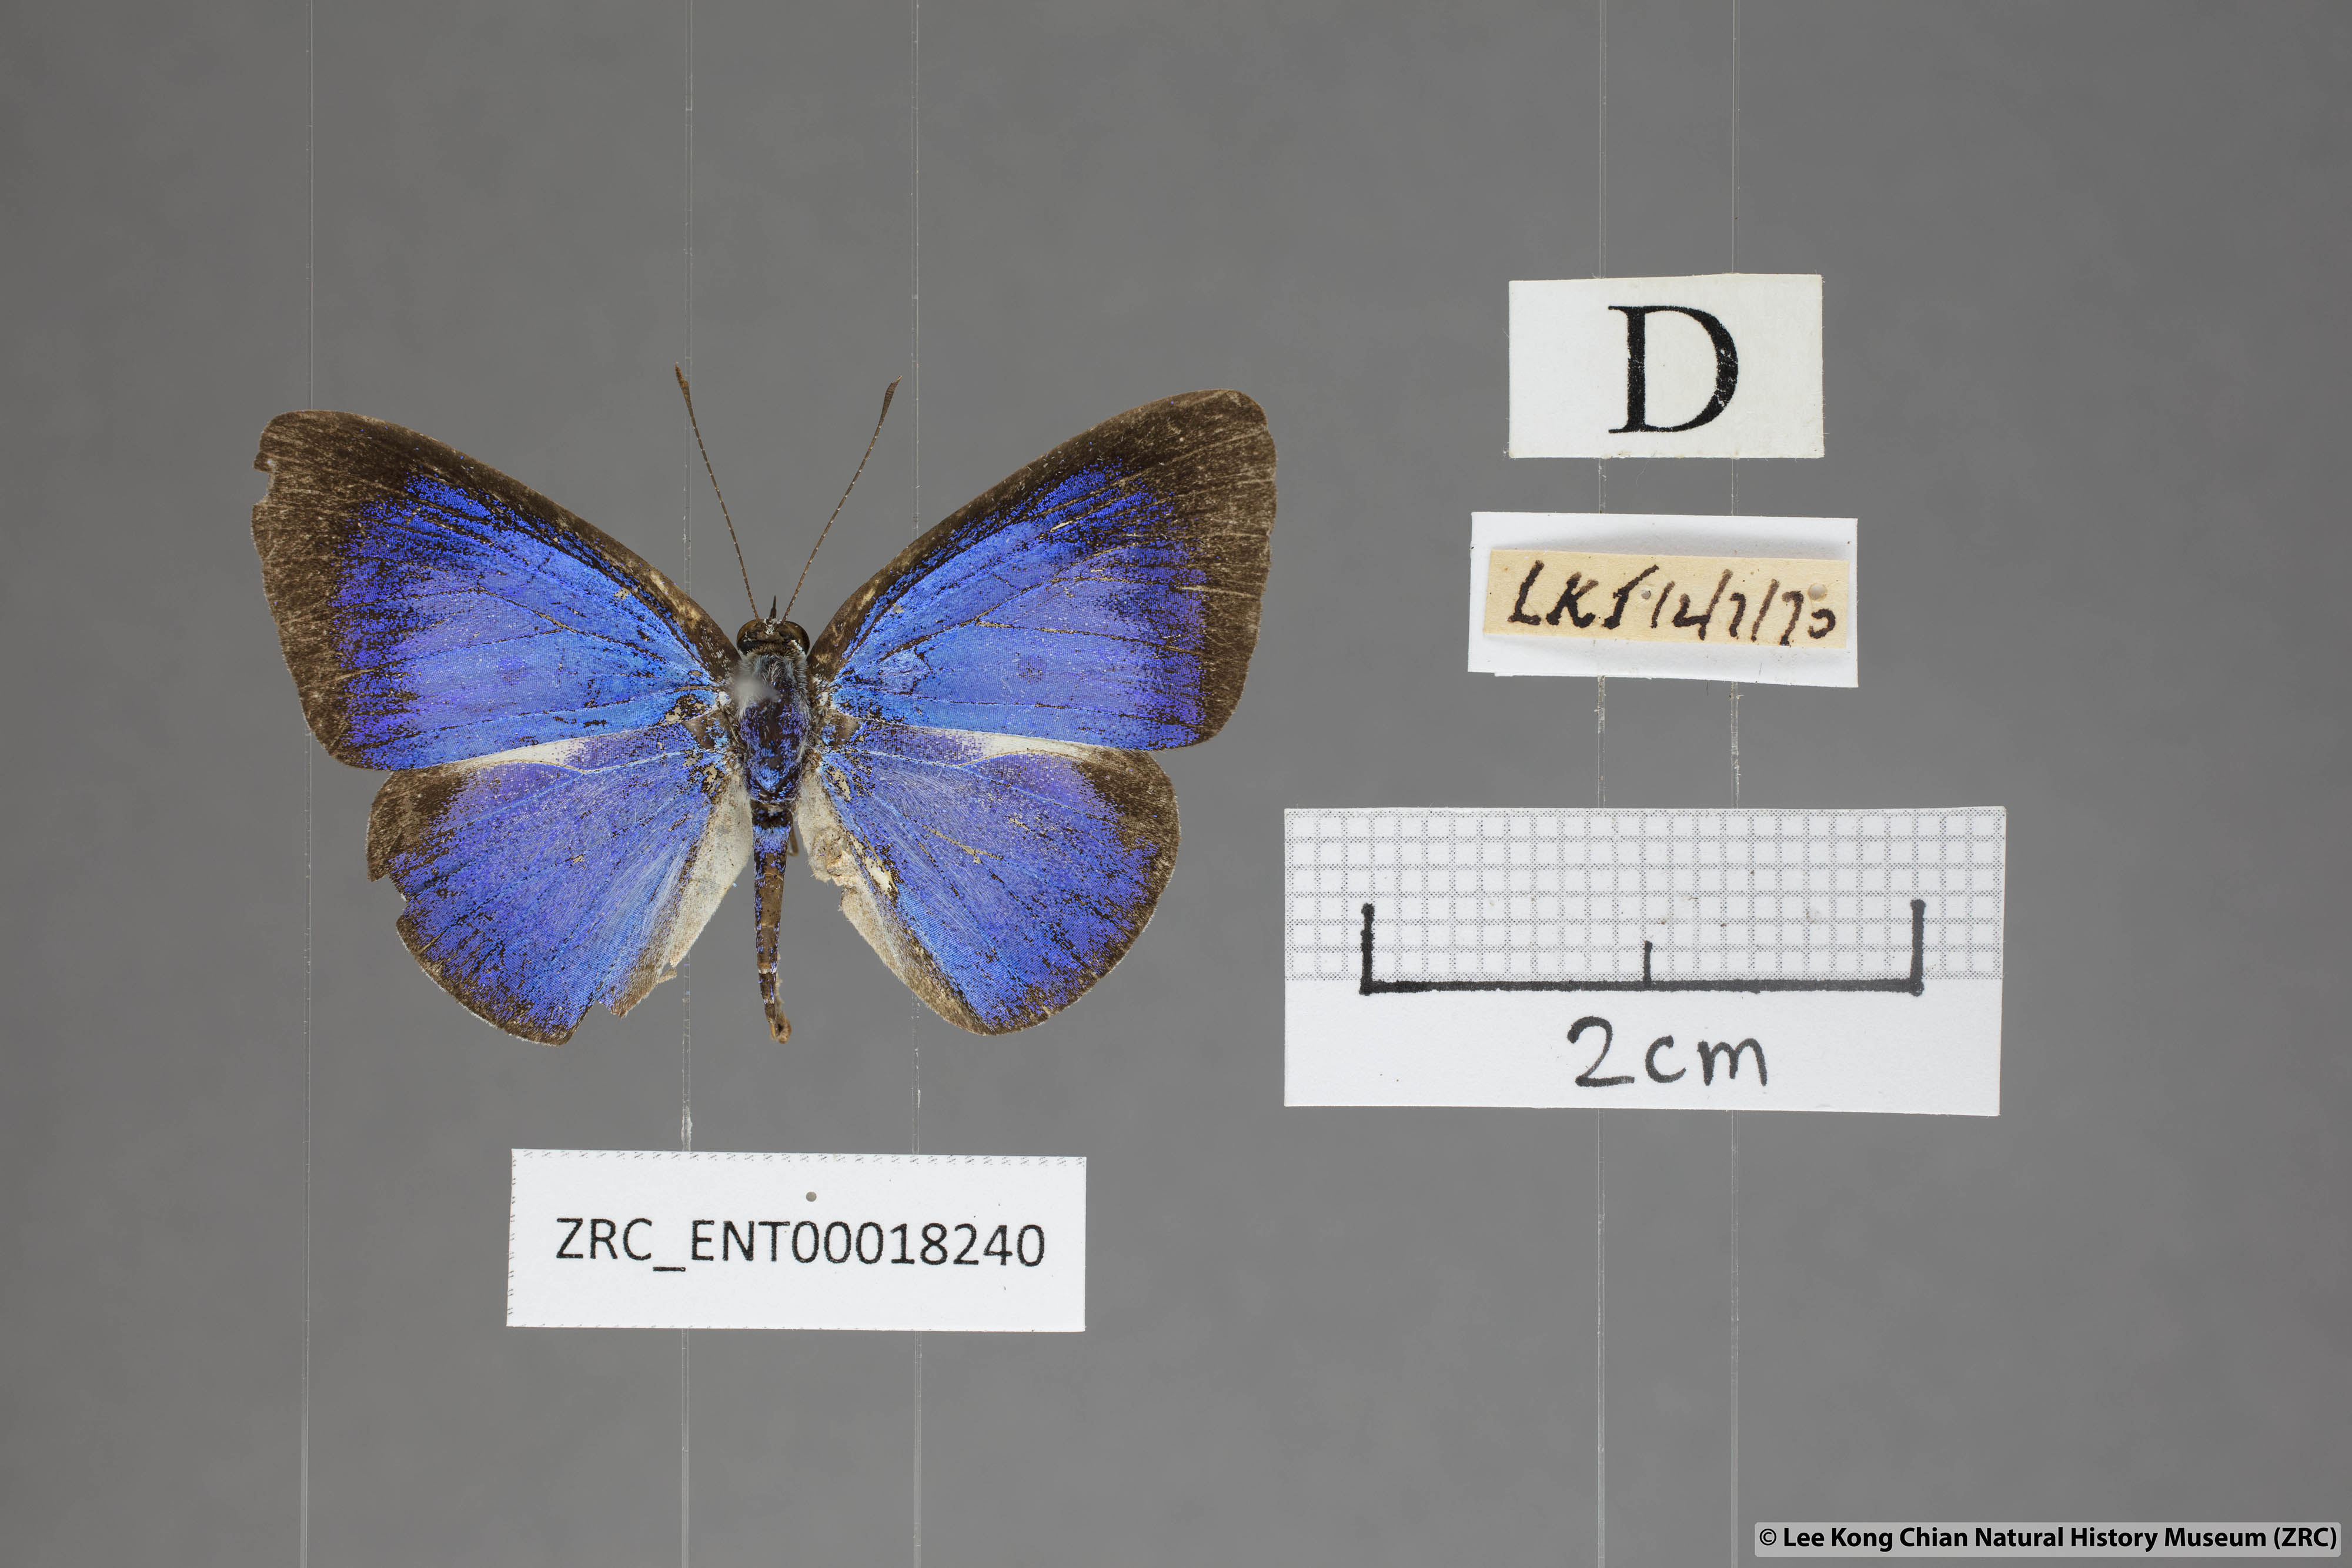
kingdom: Animalia
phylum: Arthropoda
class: Insecta
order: Lepidoptera
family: Lycaenidae
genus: Lycaenopsis
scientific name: Lycaenopsis haraldus
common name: Felder's hedge blue
